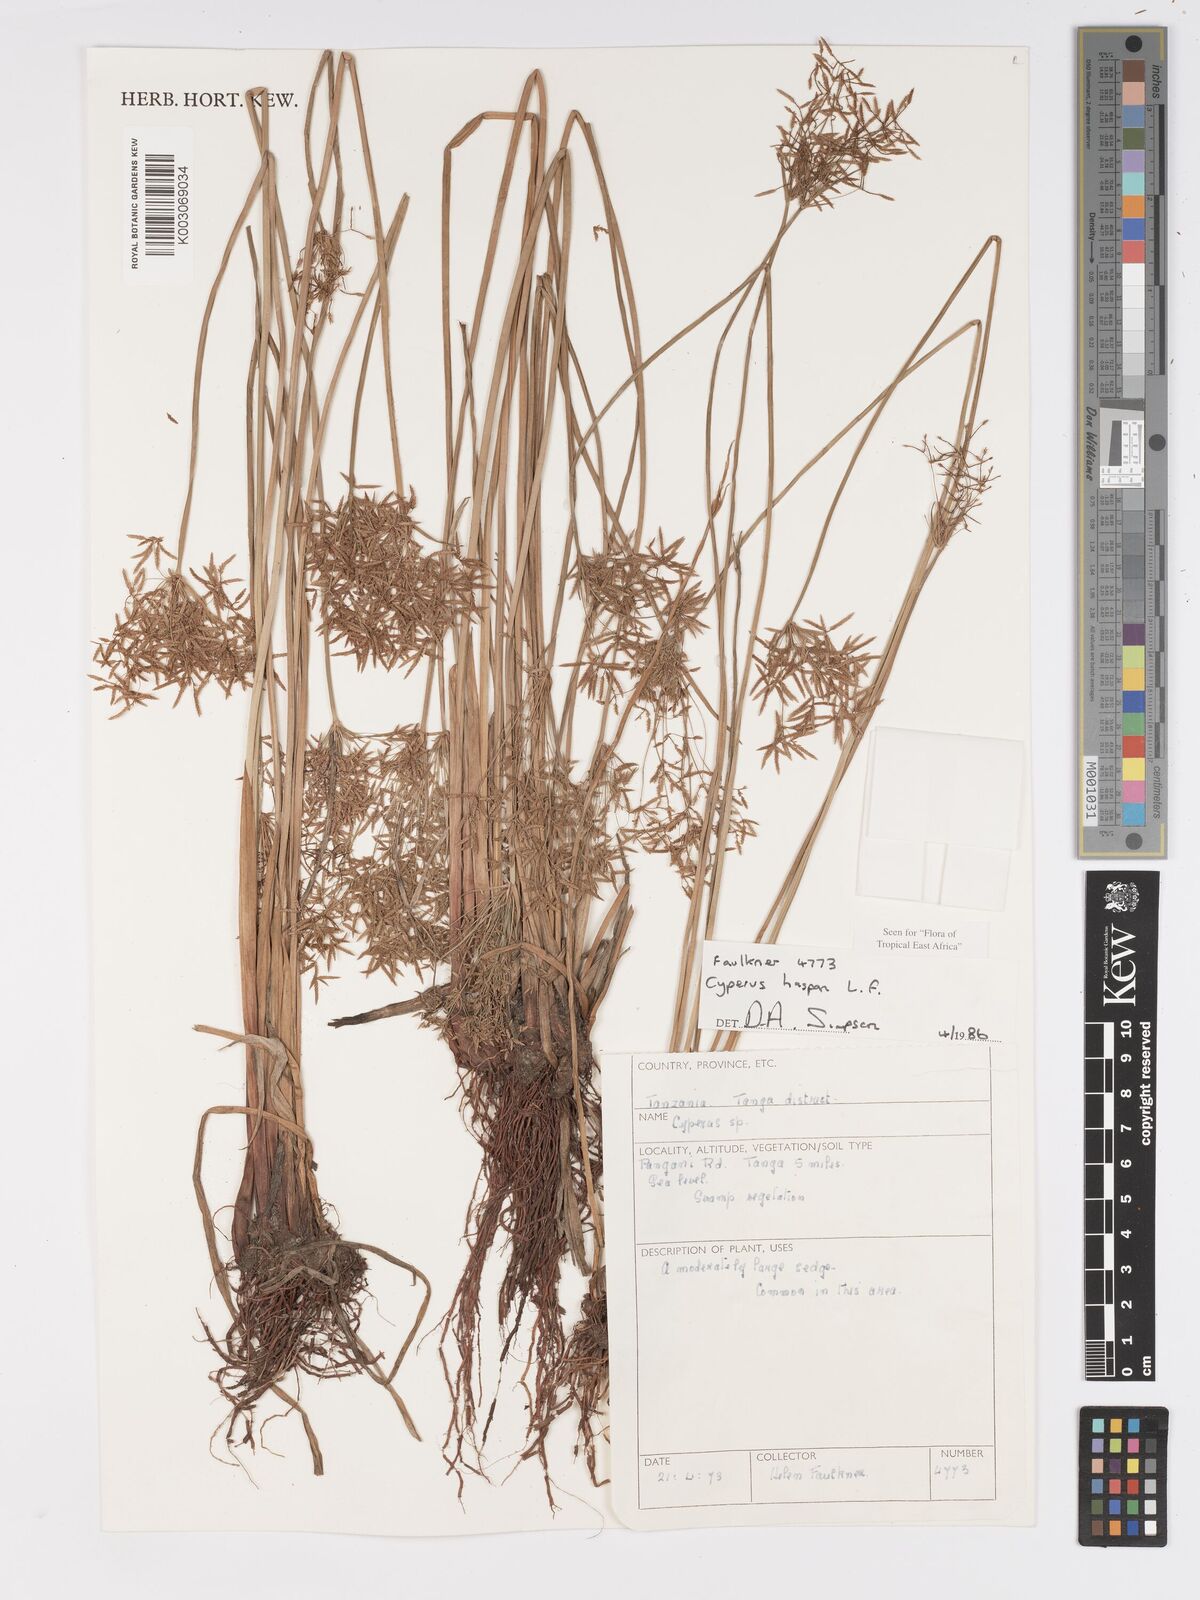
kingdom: Plantae
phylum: Tracheophyta
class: Liliopsida
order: Poales
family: Cyperaceae
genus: Cyperus
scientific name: Cyperus haspan
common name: Haspan flatsedge
